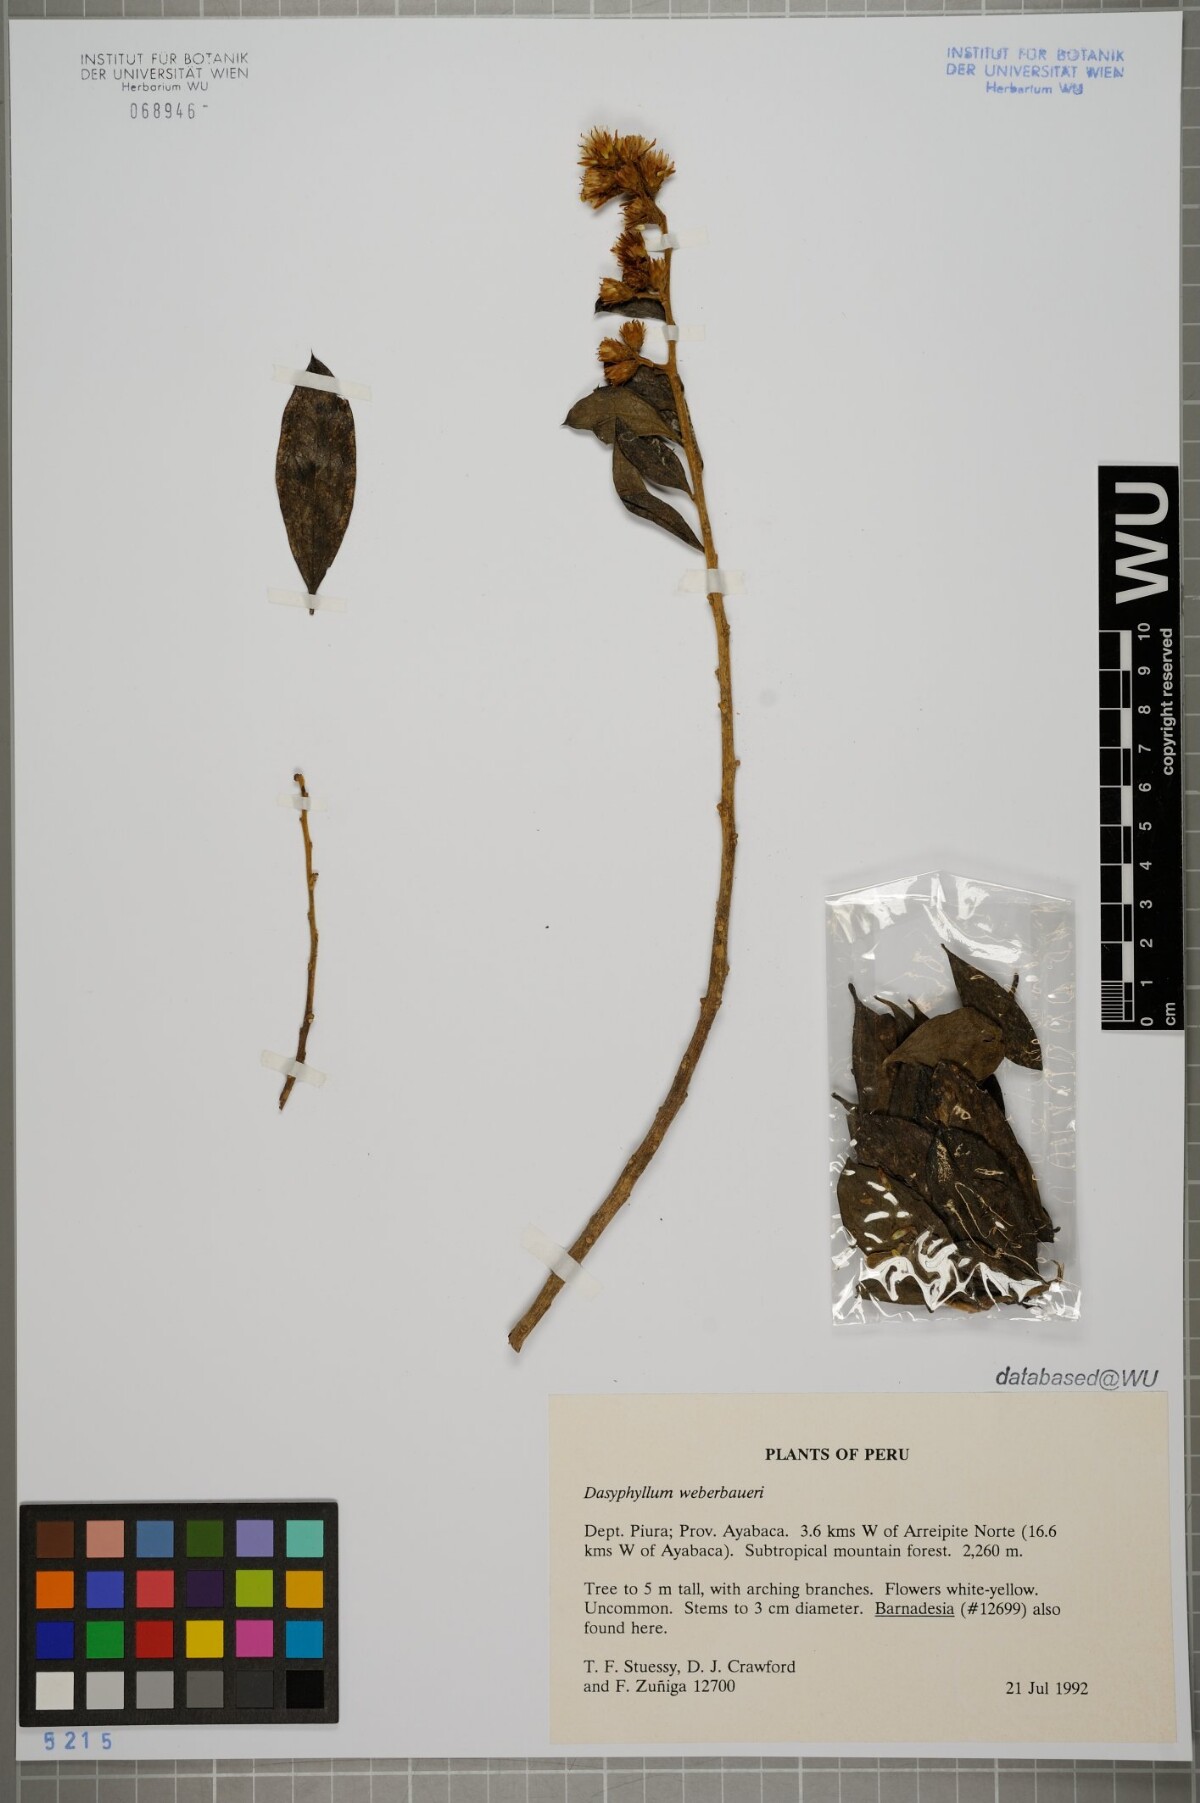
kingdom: Plantae
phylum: Tracheophyta
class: Magnoliopsida
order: Asterales
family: Asteraceae
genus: Dasyphyllum
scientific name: Dasyphyllum weberbaueri
